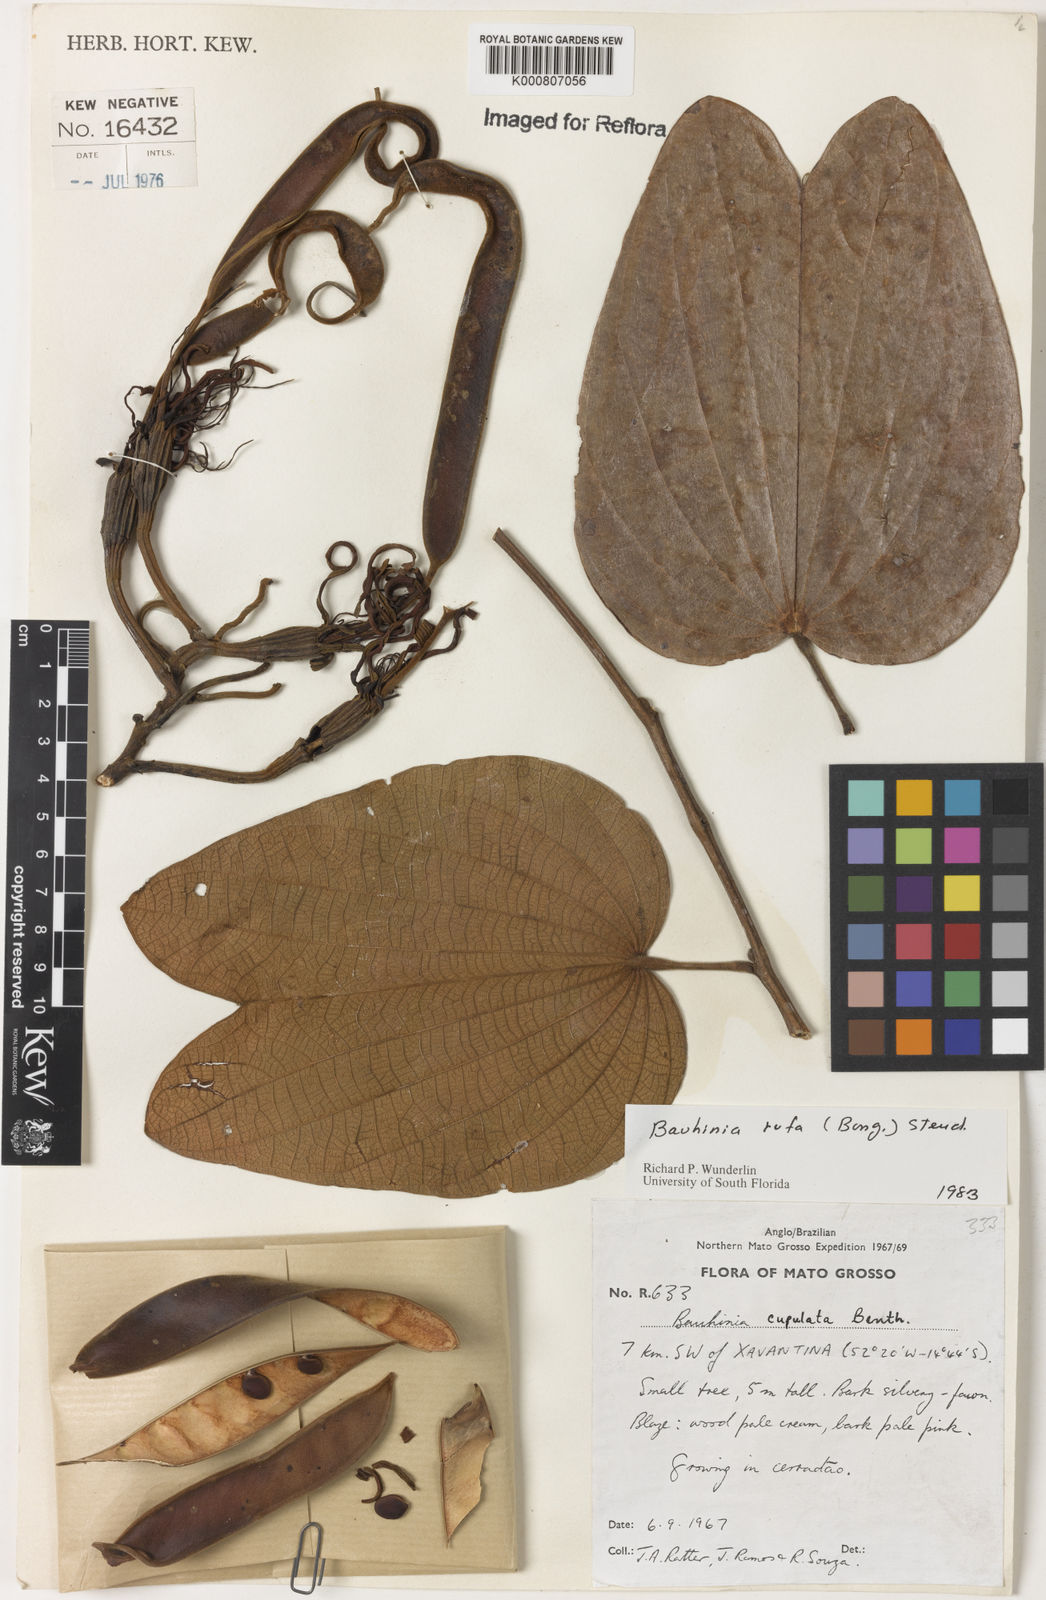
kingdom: Plantae
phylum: Tracheophyta
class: Magnoliopsida
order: Fabales
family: Fabaceae
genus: Bauhinia
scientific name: Bauhinia rufa
